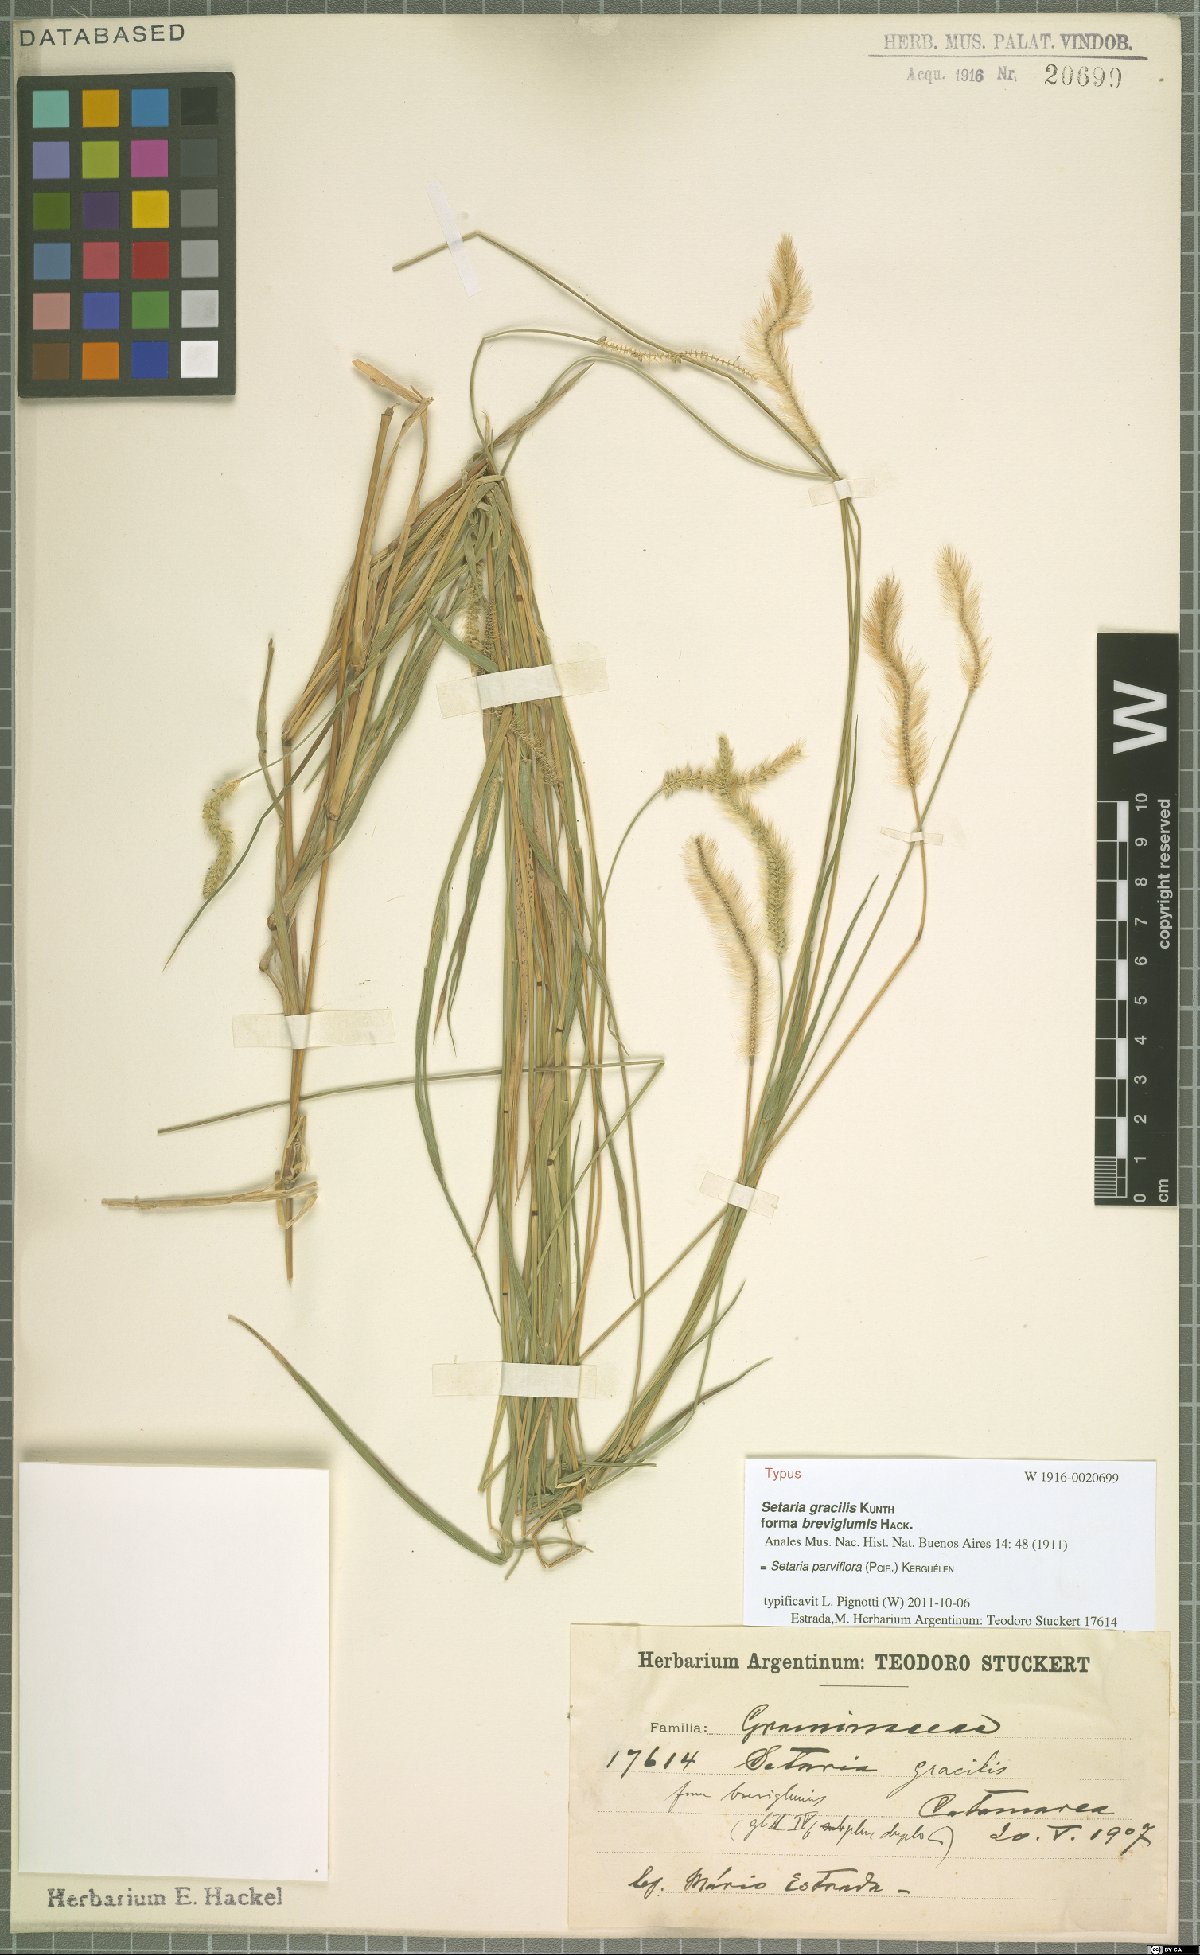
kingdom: Plantae
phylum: Tracheophyta
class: Liliopsida
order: Poales
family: Poaceae
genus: Setaria
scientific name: Setaria parviflora
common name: Knotroot bristle-grass
